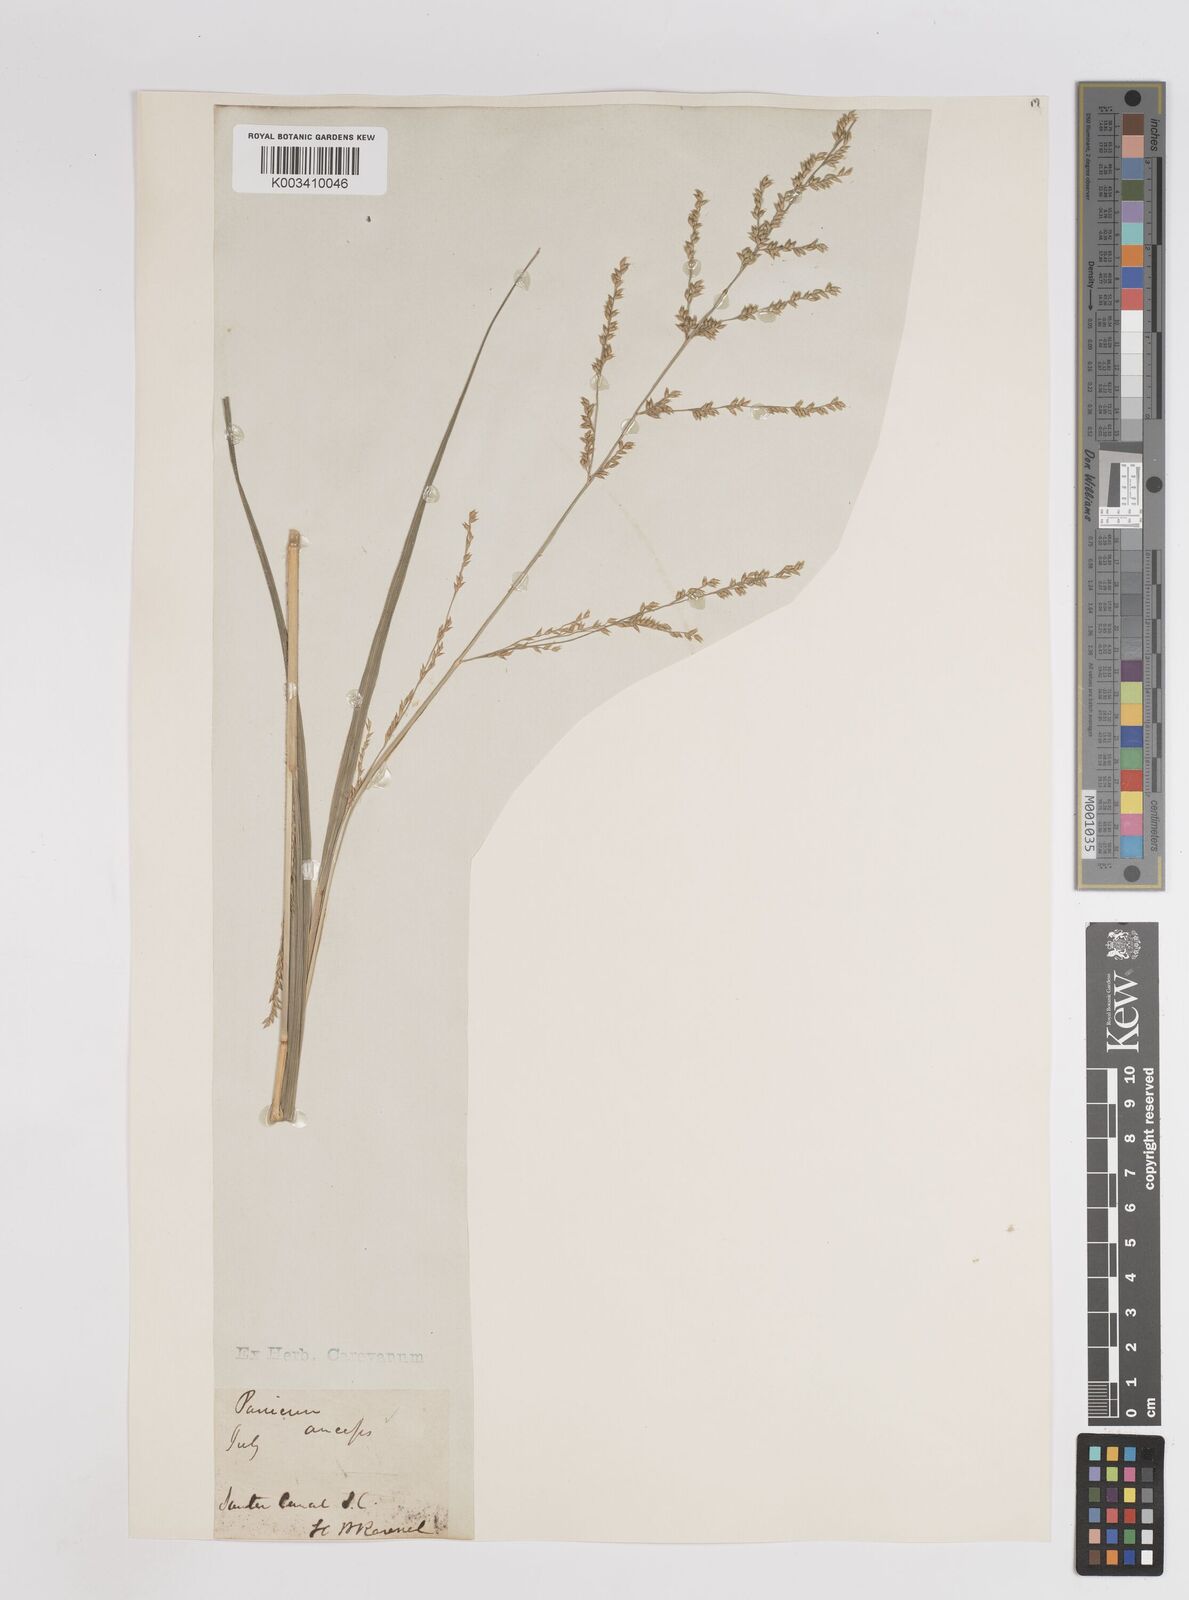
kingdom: Plantae
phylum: Tracheophyta
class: Liliopsida
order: Poales
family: Poaceae
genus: Coleataenia
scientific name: Coleataenia anceps
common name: Beaked panic grass
